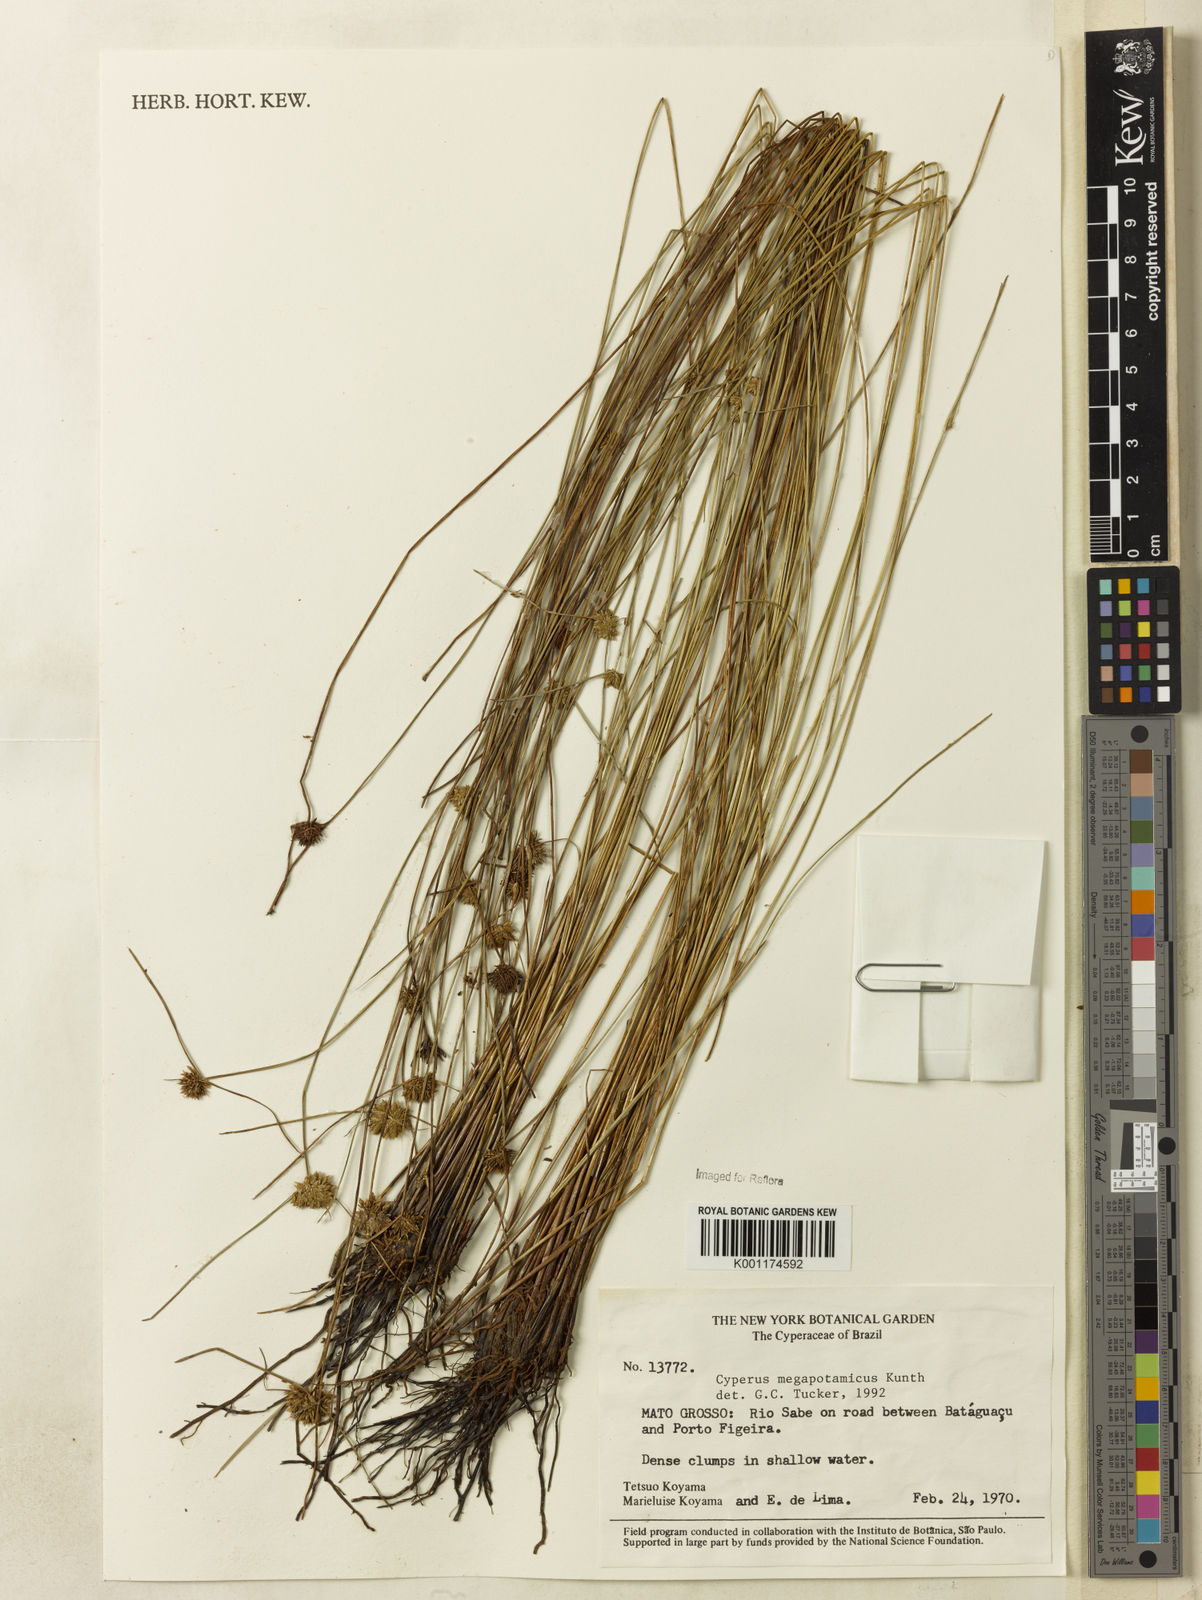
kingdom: Plantae
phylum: Tracheophyta
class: Liliopsida
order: Poales
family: Cyperaceae
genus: Cyperus
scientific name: Cyperus megapotamicus
